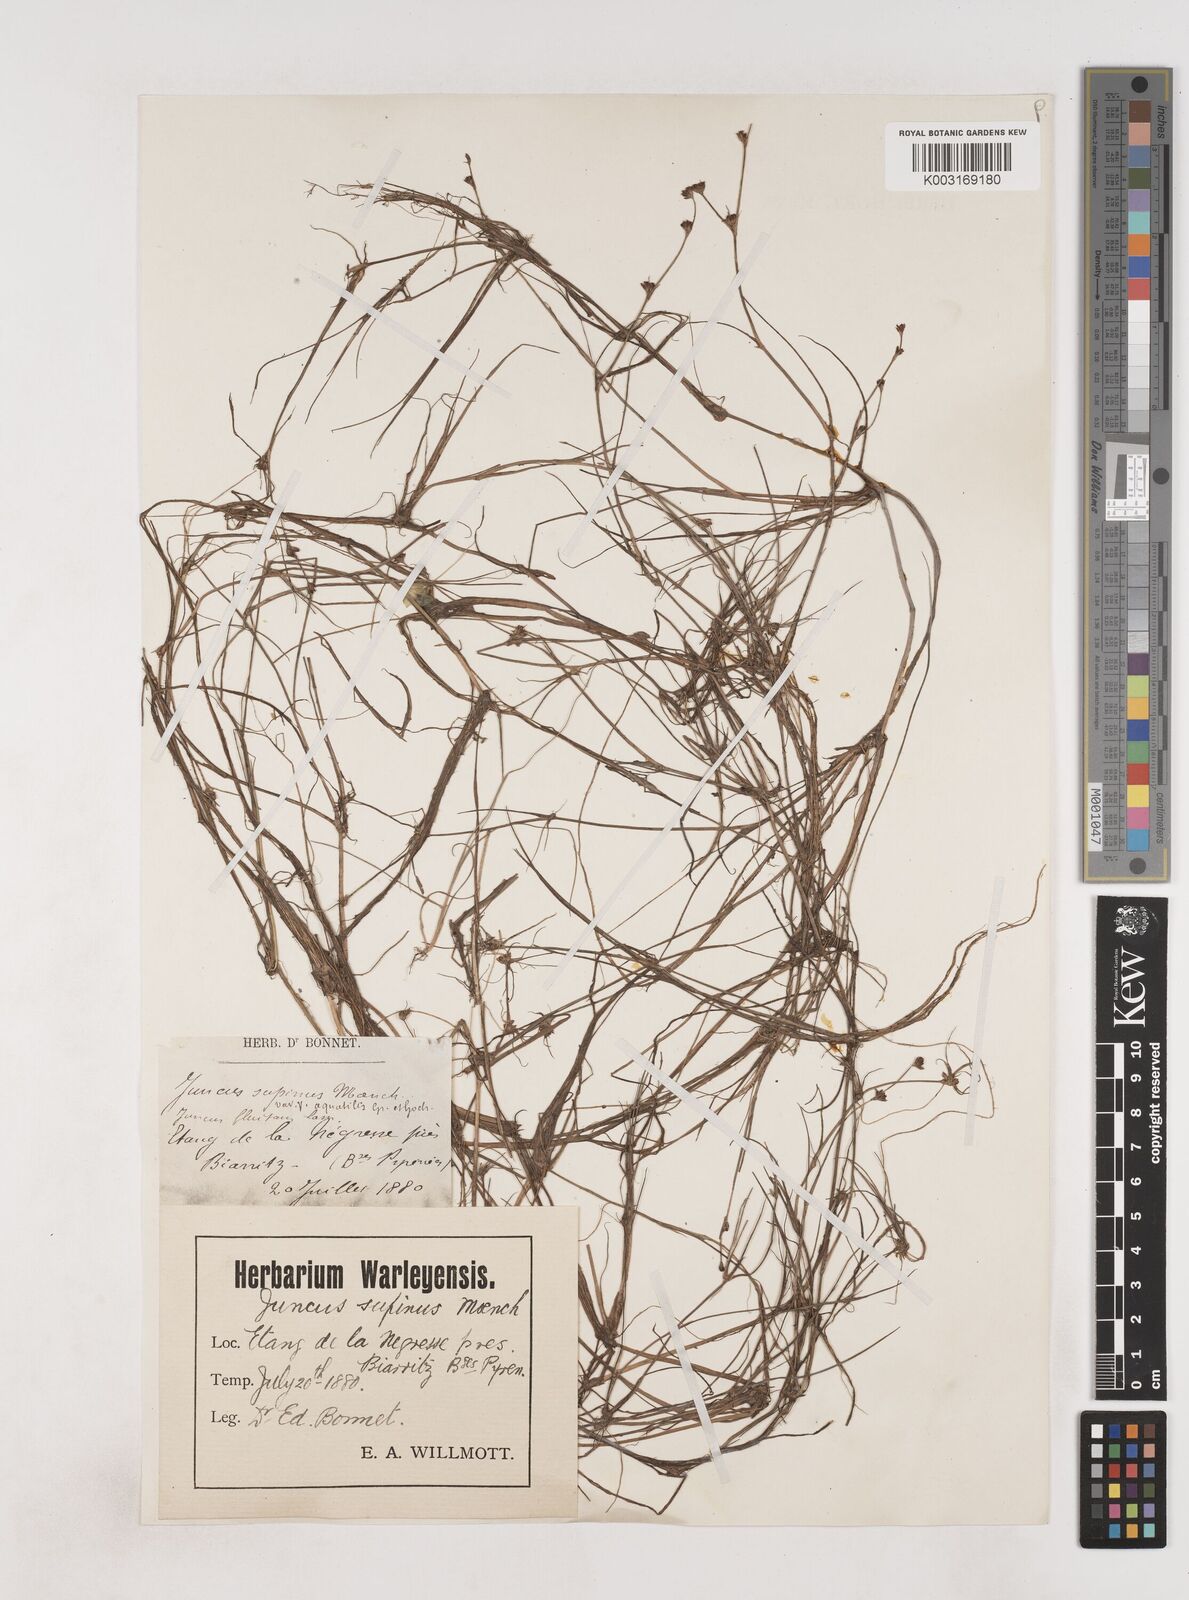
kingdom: Plantae
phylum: Tracheophyta
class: Liliopsida
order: Poales
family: Juncaceae
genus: Juncus
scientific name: Juncus bulbosus
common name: Bulbous rush
